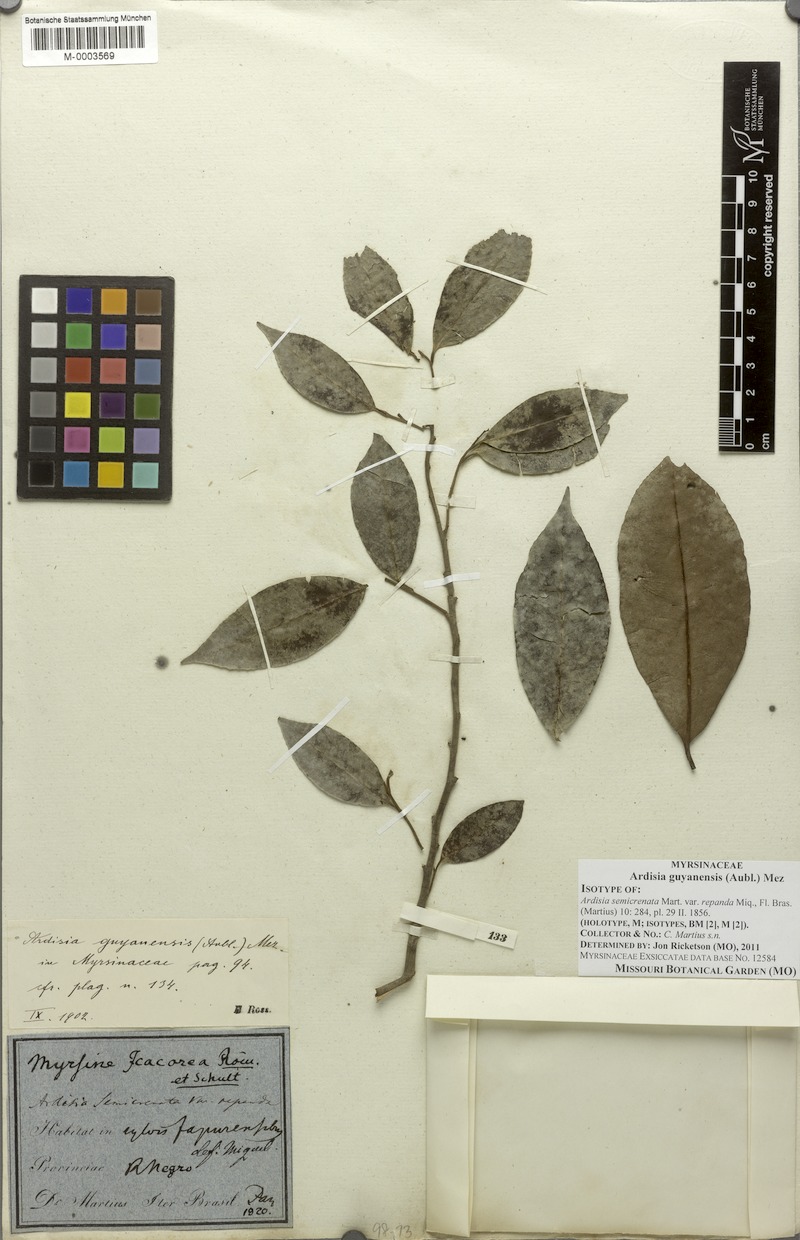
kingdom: Plantae
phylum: Tracheophyta
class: Magnoliopsida
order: Ericales
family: Primulaceae
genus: Ardisia
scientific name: Ardisia guianensis
